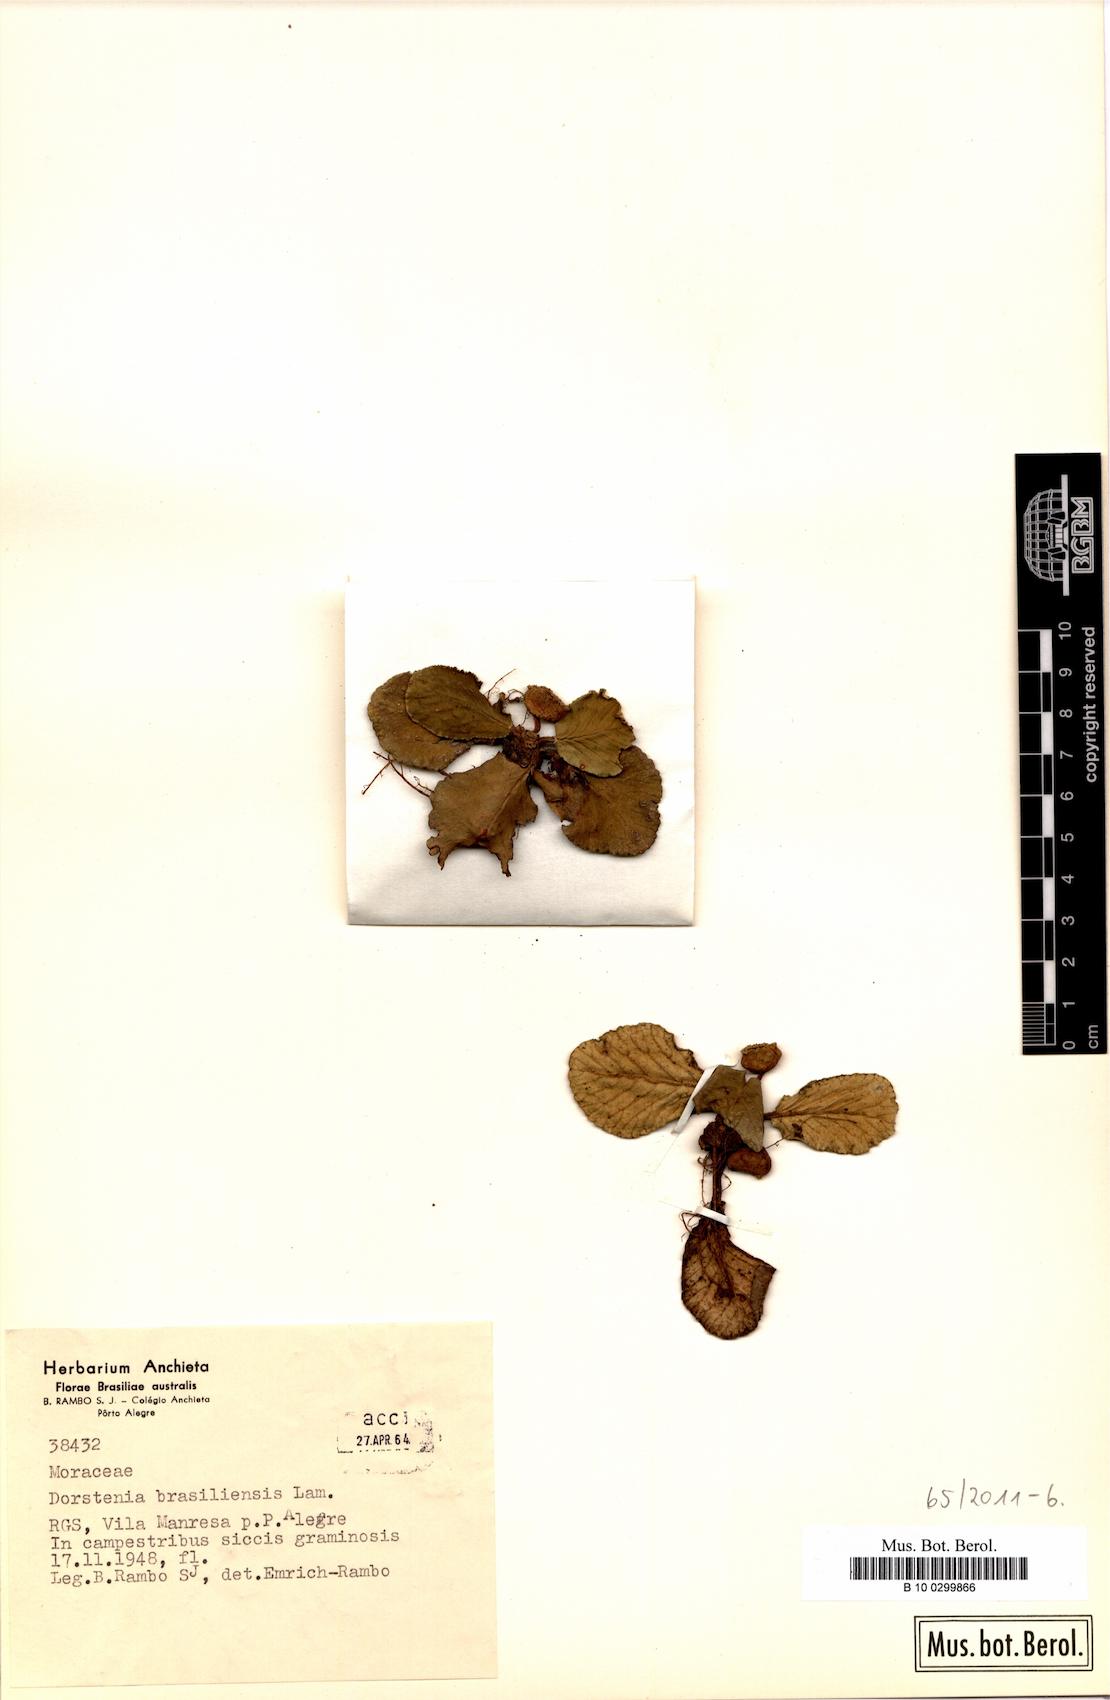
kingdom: Plantae
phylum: Tracheophyta
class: Magnoliopsida
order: Rosales
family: Moraceae
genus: Dorstenia
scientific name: Dorstenia brasiliensis
